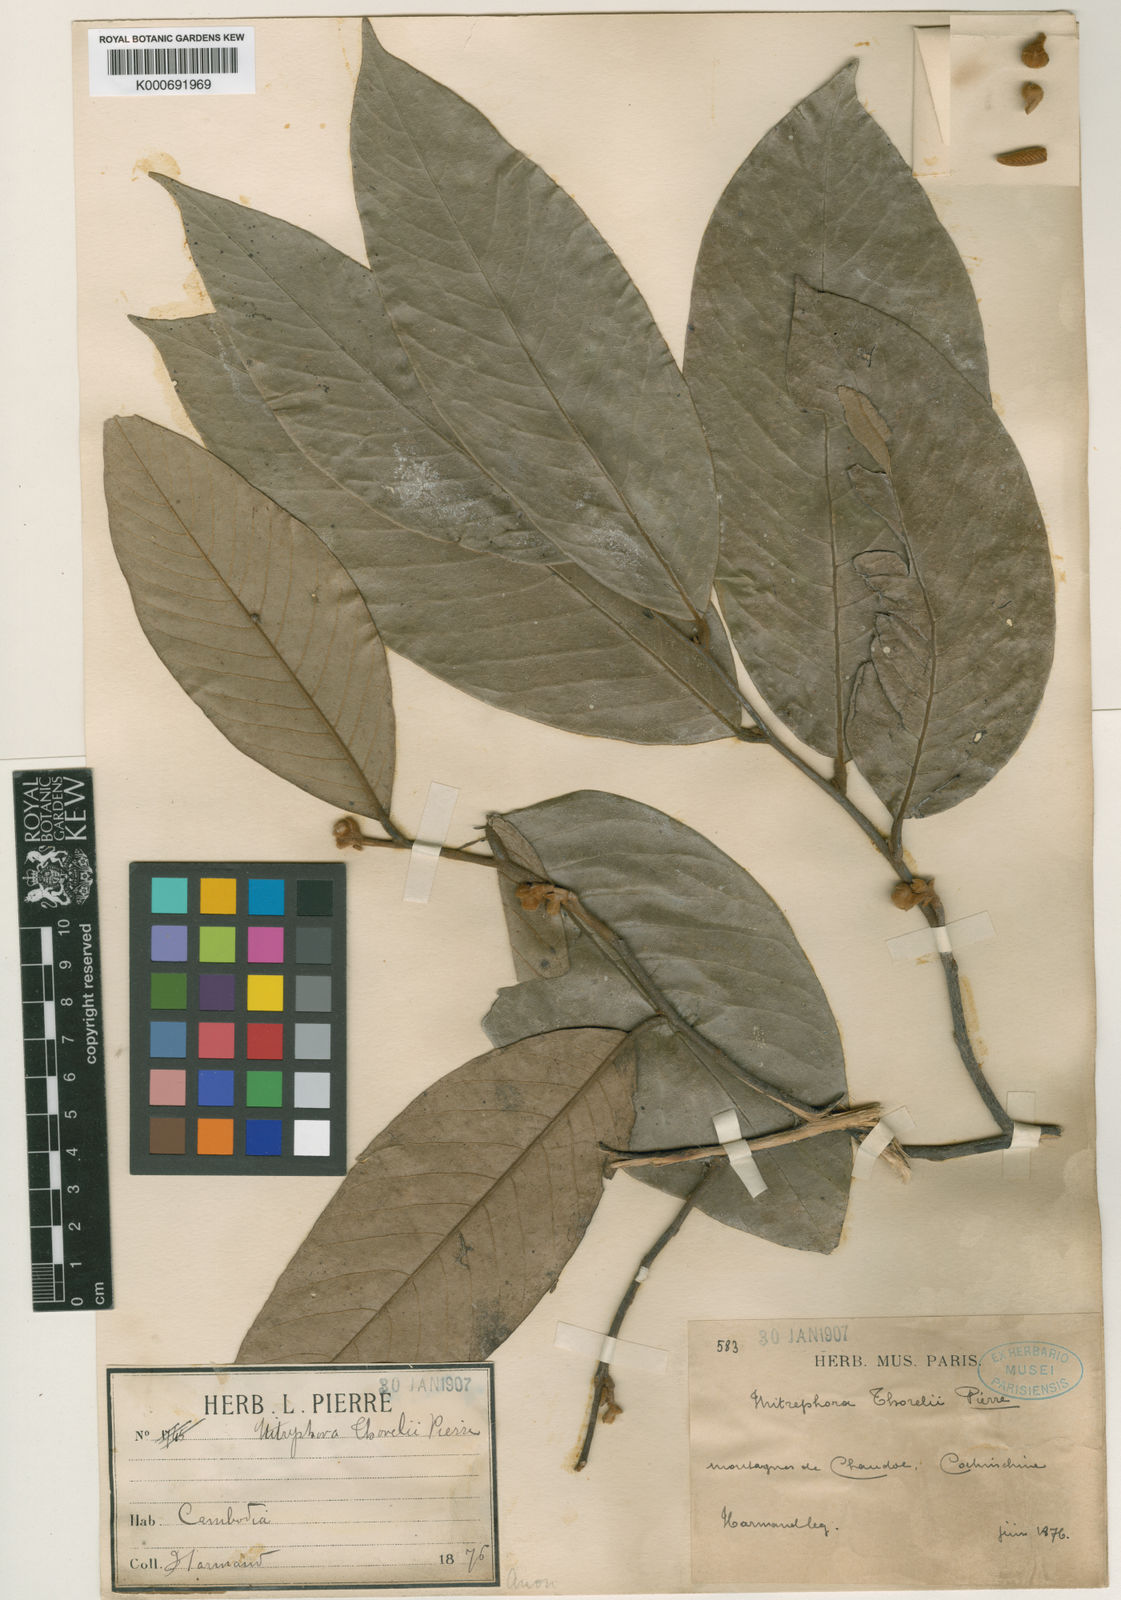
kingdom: Plantae
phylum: Tracheophyta
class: Magnoliopsida
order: Magnoliales
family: Annonaceae
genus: Mitrephora
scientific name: Mitrephora tomentosa
